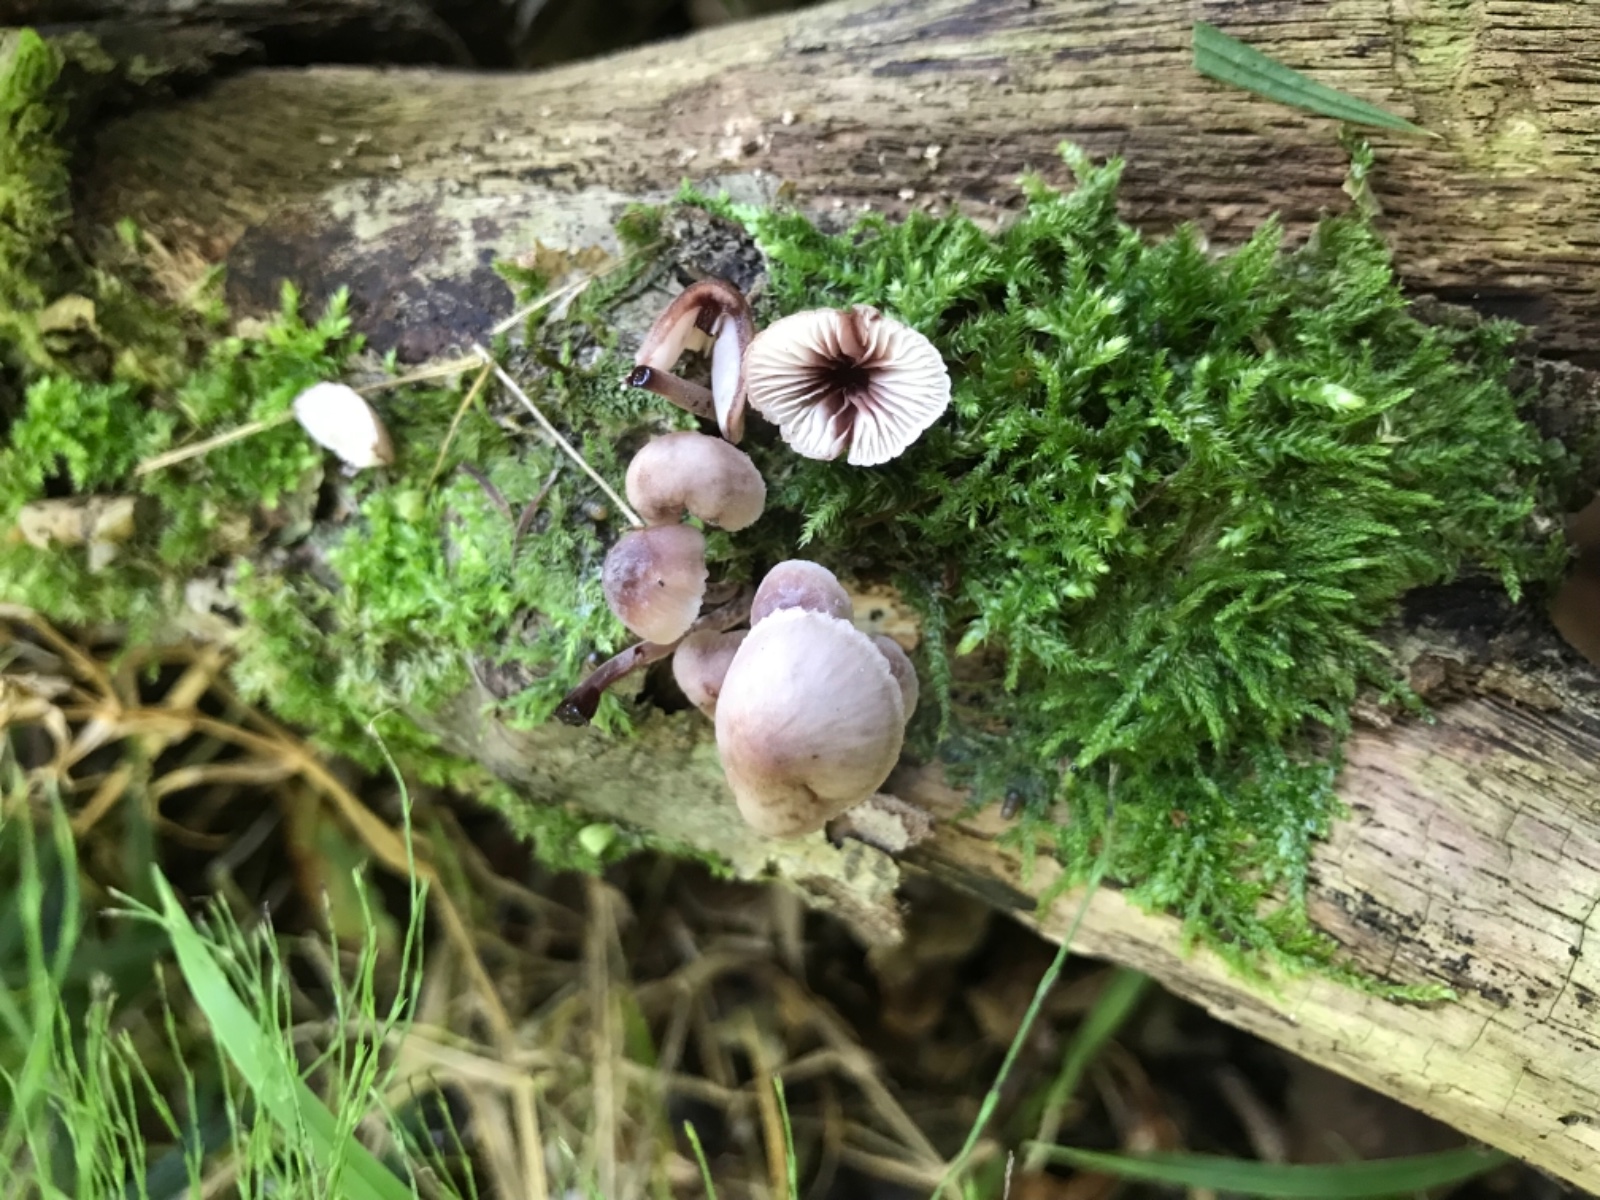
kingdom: Fungi
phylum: Basidiomycota
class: Agaricomycetes
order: Agaricales
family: Mycenaceae
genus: Mycena
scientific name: Mycena haematopus
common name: blødende huesvamp
